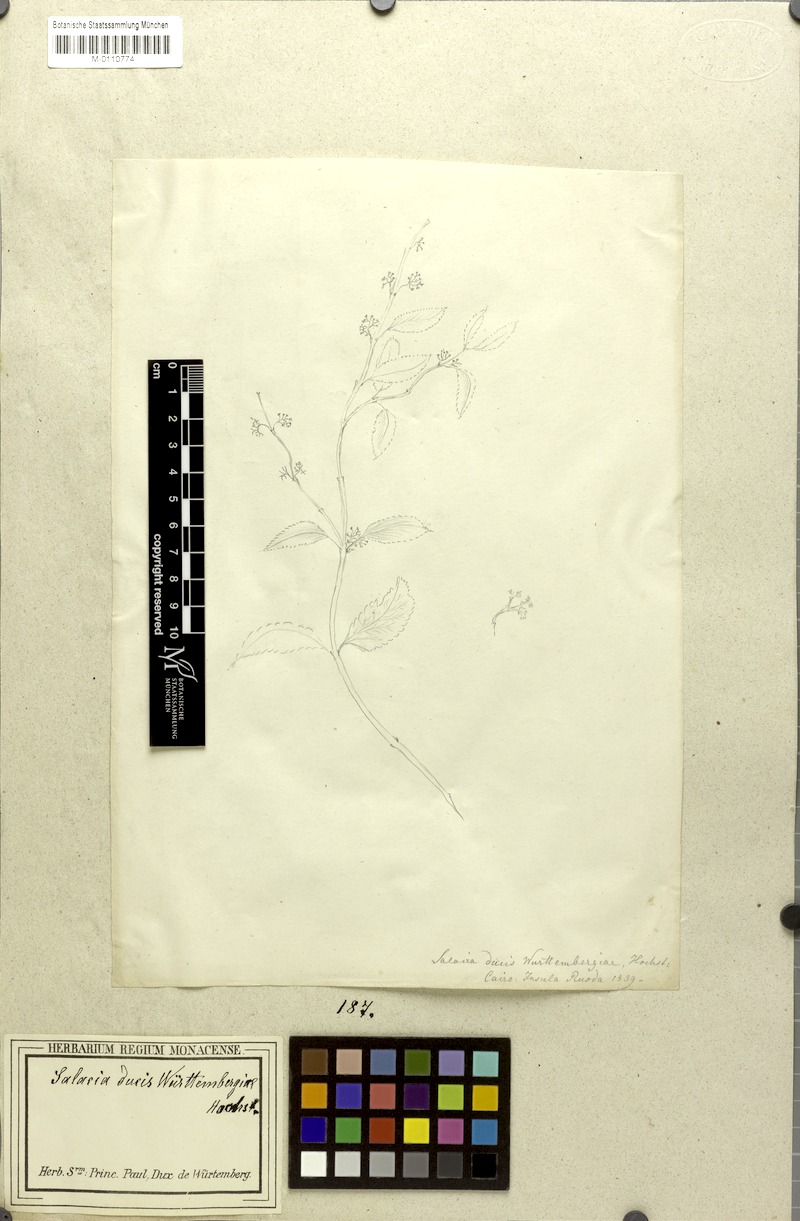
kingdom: Plantae
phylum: Tracheophyta
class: Magnoliopsida
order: Celastrales
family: Celastraceae
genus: Salacia
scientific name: Salacia ducis-wuertembergiae
